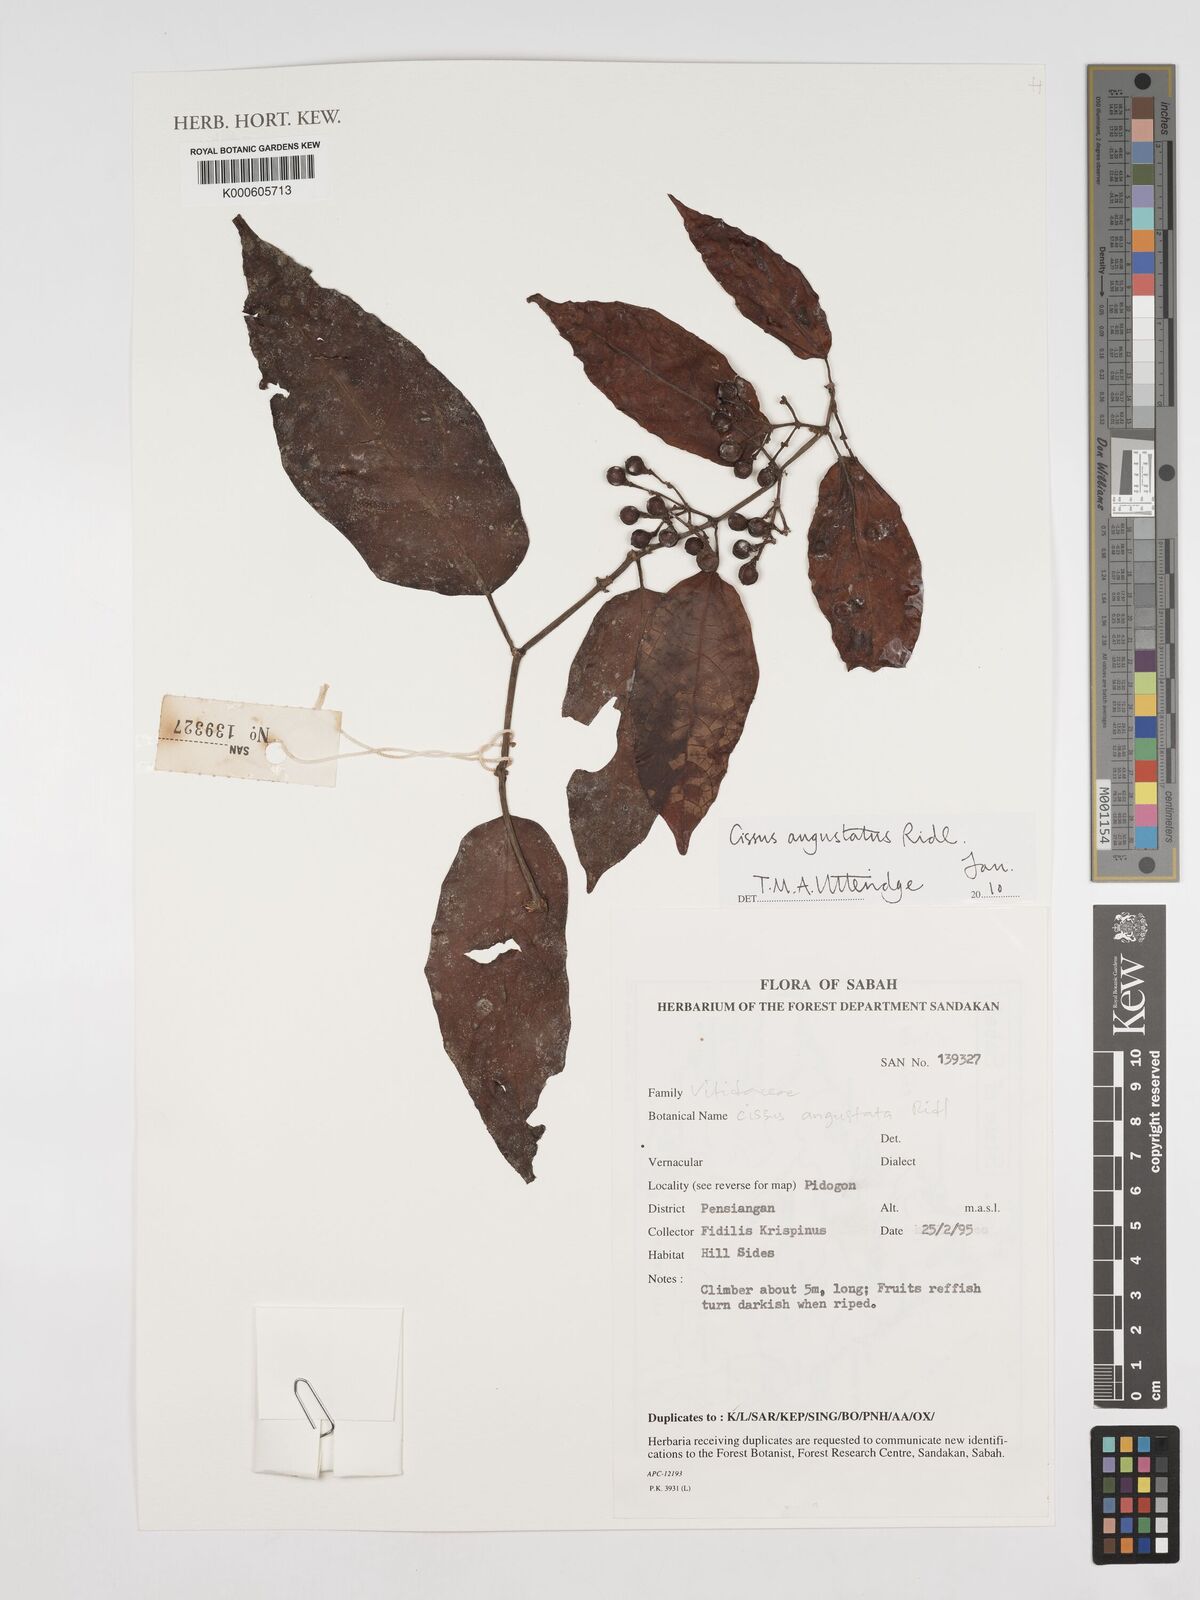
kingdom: Plantae
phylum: Tracheophyta
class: Magnoliopsida
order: Vitales
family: Vitaceae
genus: Cissus
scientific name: Cissus angustata
